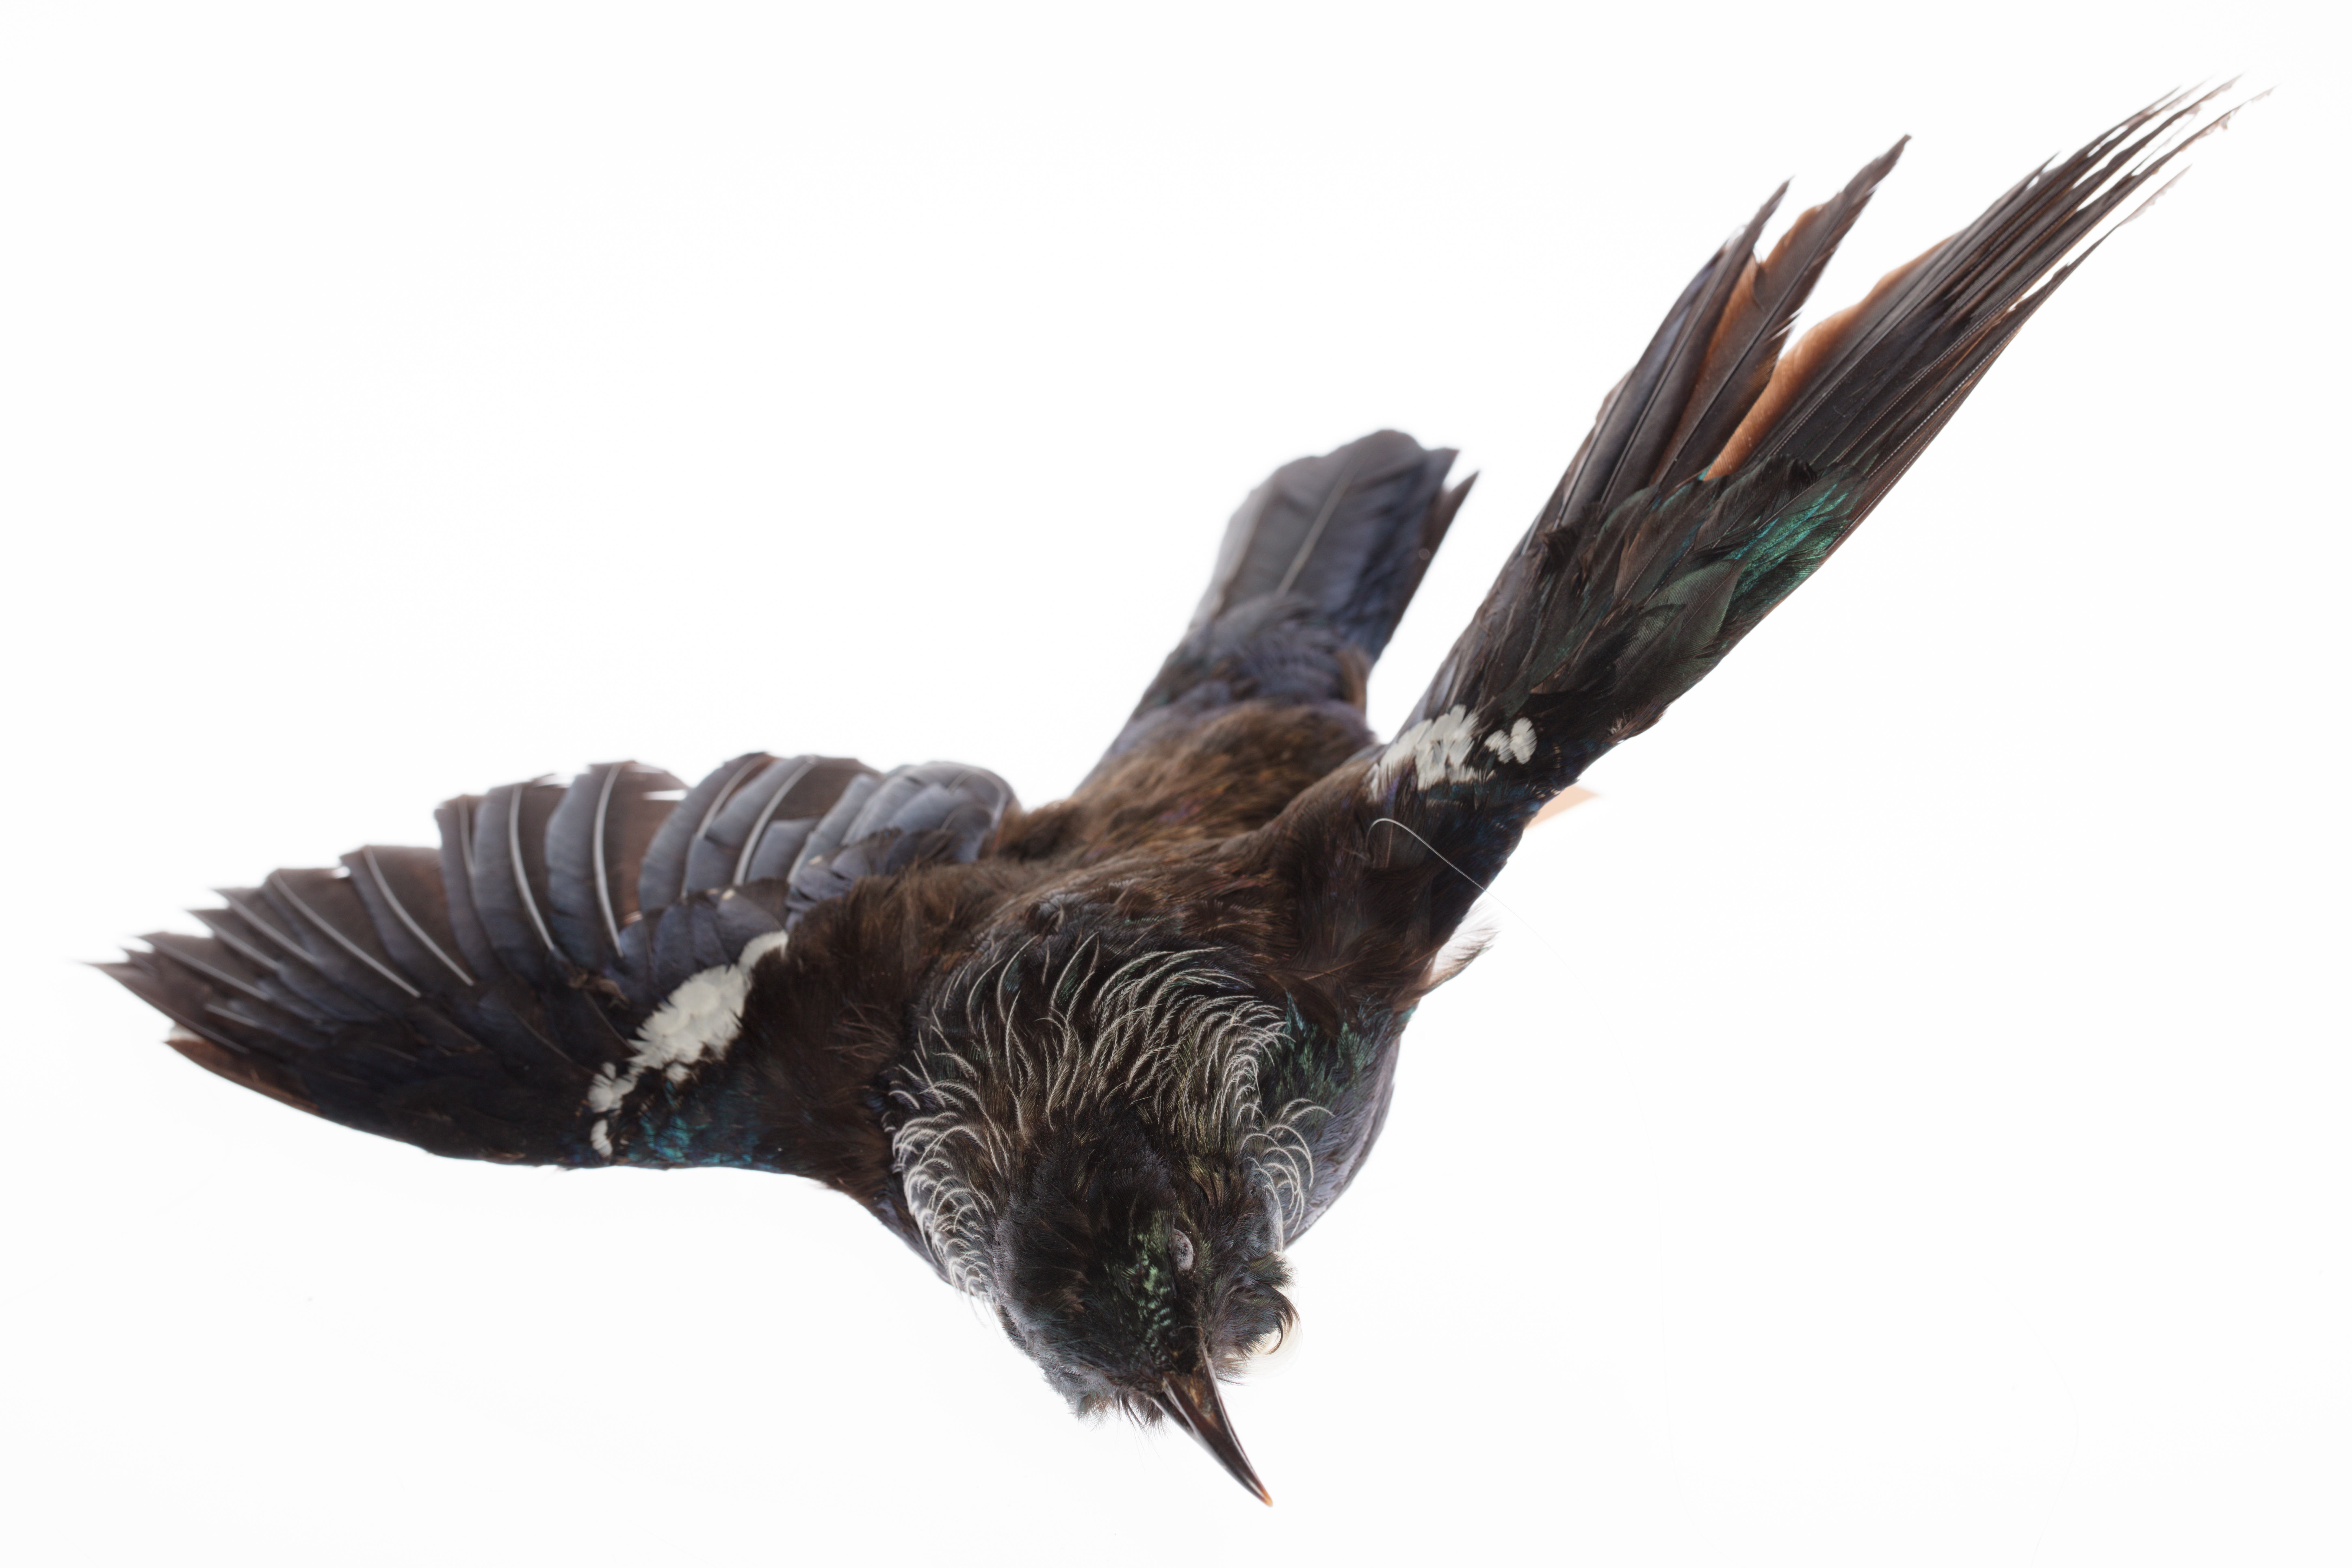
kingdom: Animalia
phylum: Chordata
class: Aves
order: Passeriformes
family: Meliphagidae
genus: Prosthemadera
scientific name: Prosthemadera novaeseelandiae
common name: Tui
